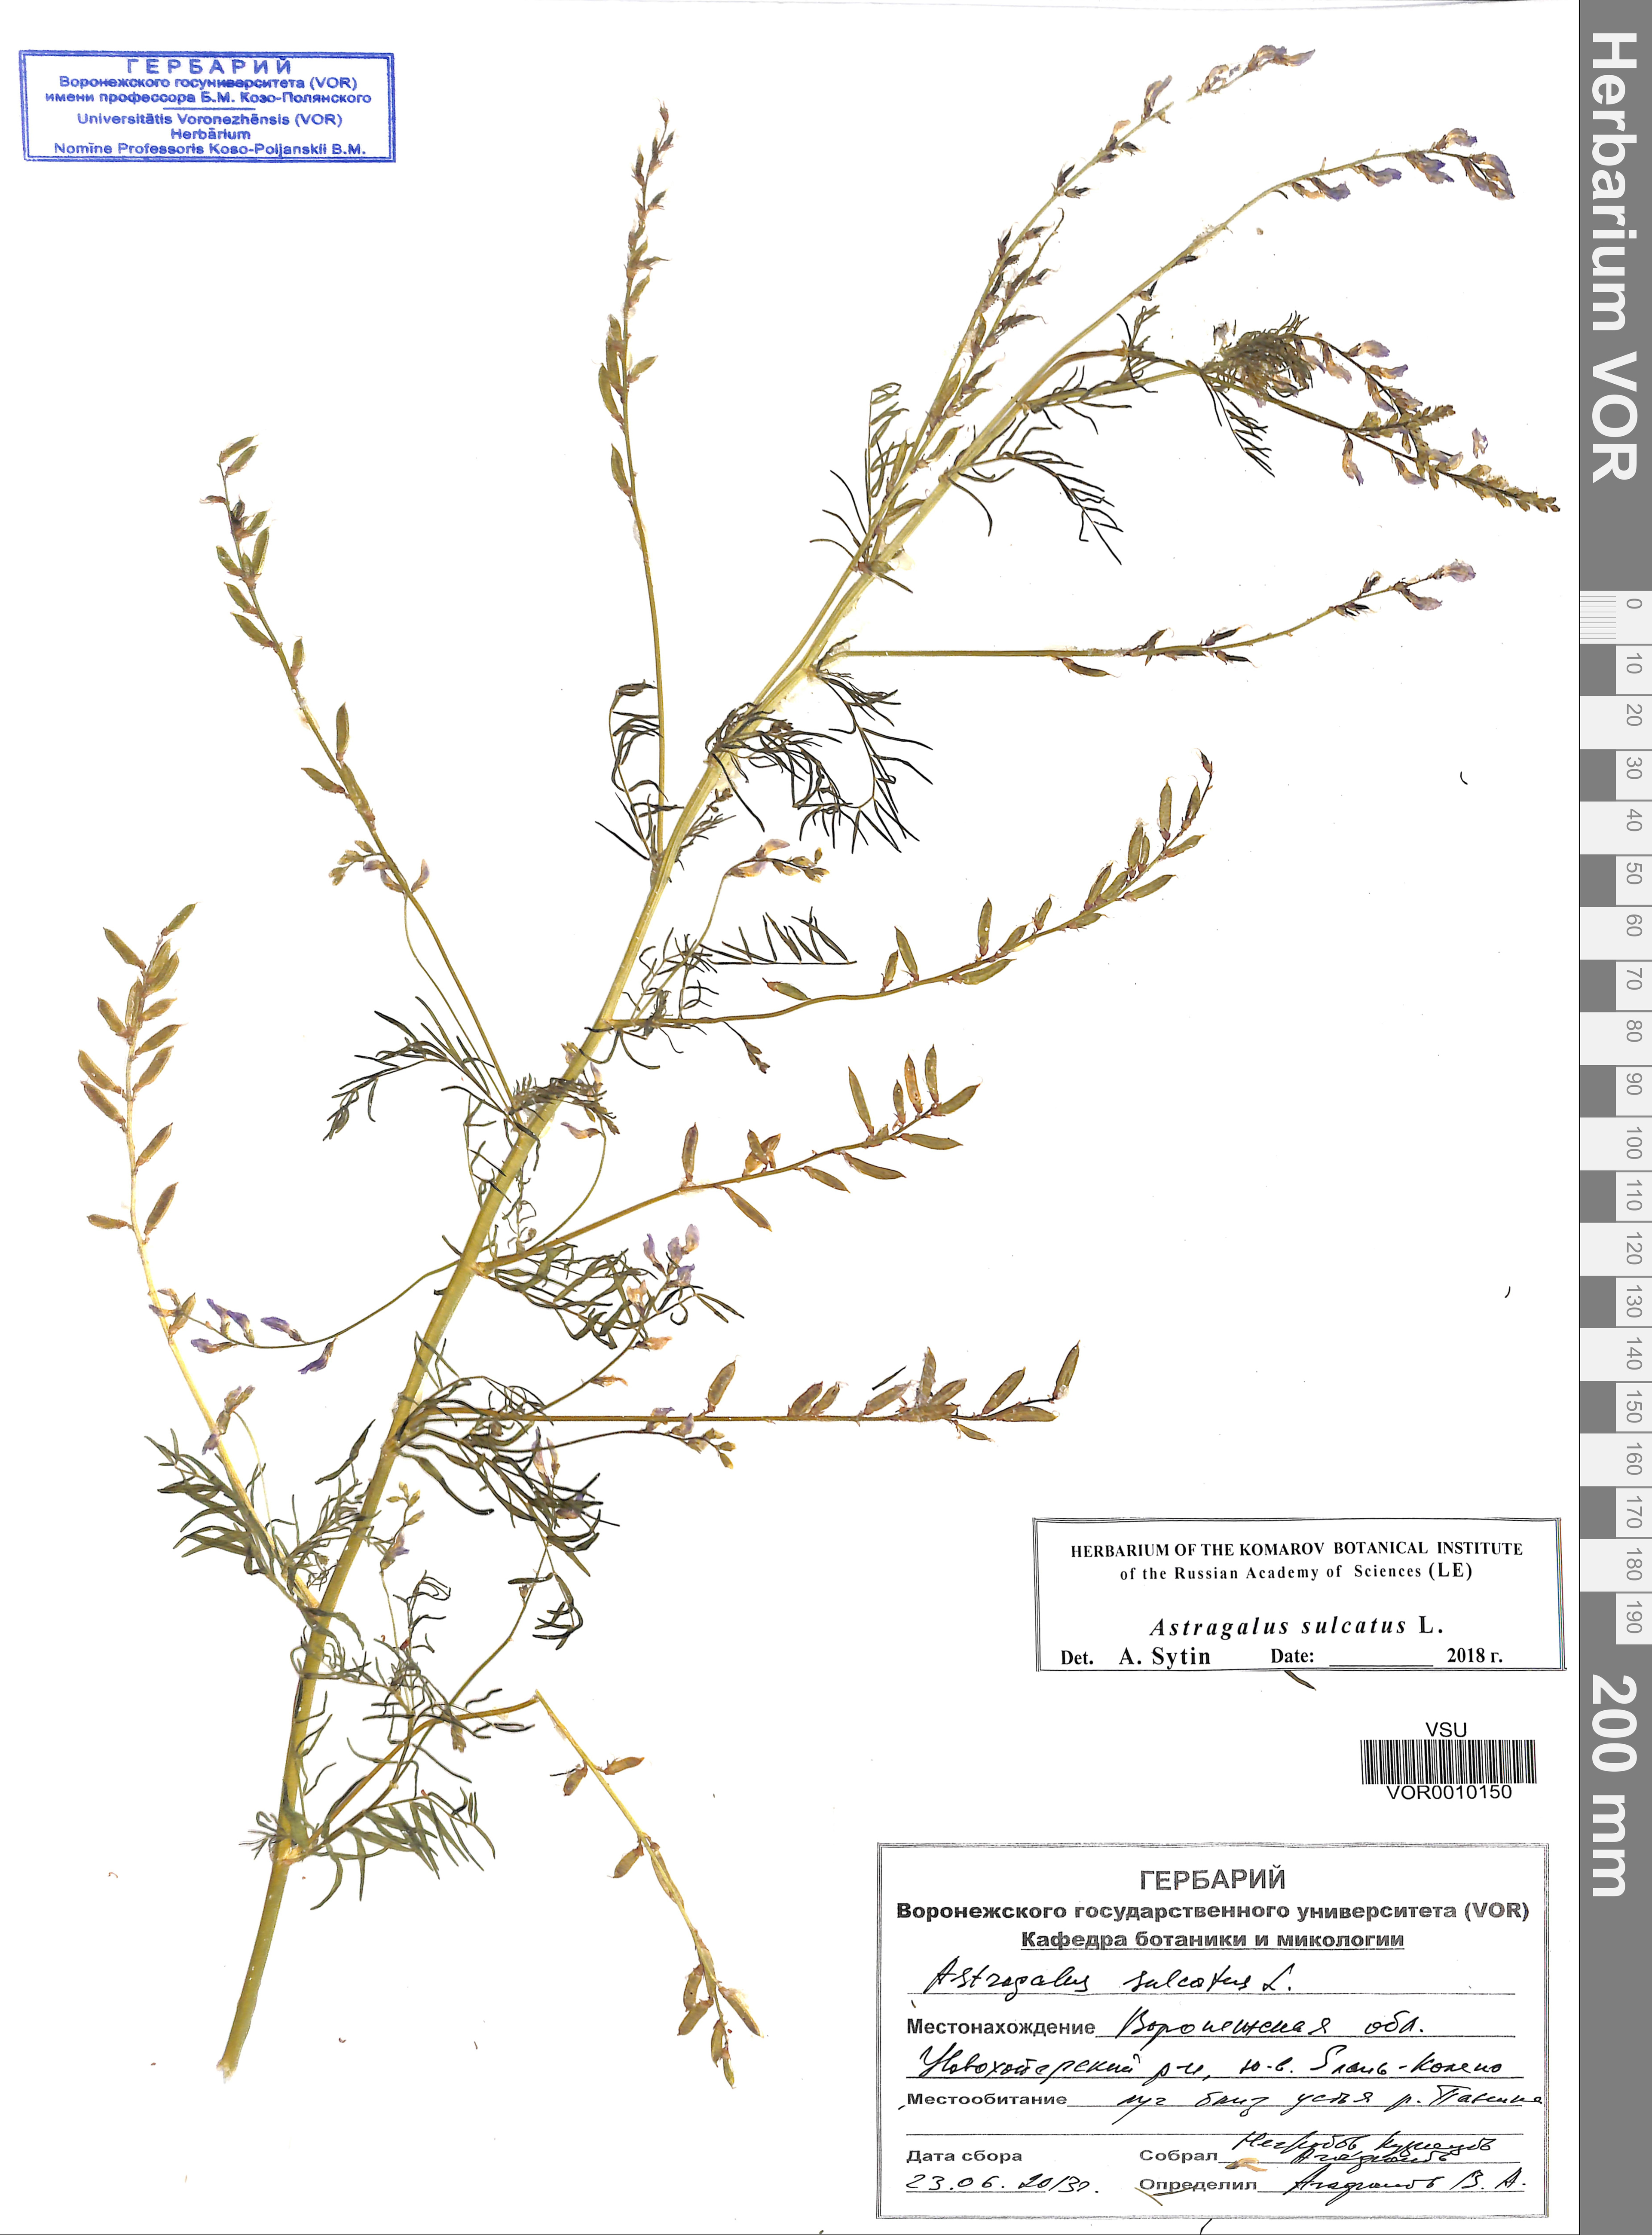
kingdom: Plantae
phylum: Tracheophyta
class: Magnoliopsida
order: Fabales
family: Fabaceae
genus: Astragalus
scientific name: Astragalus sulcatus
